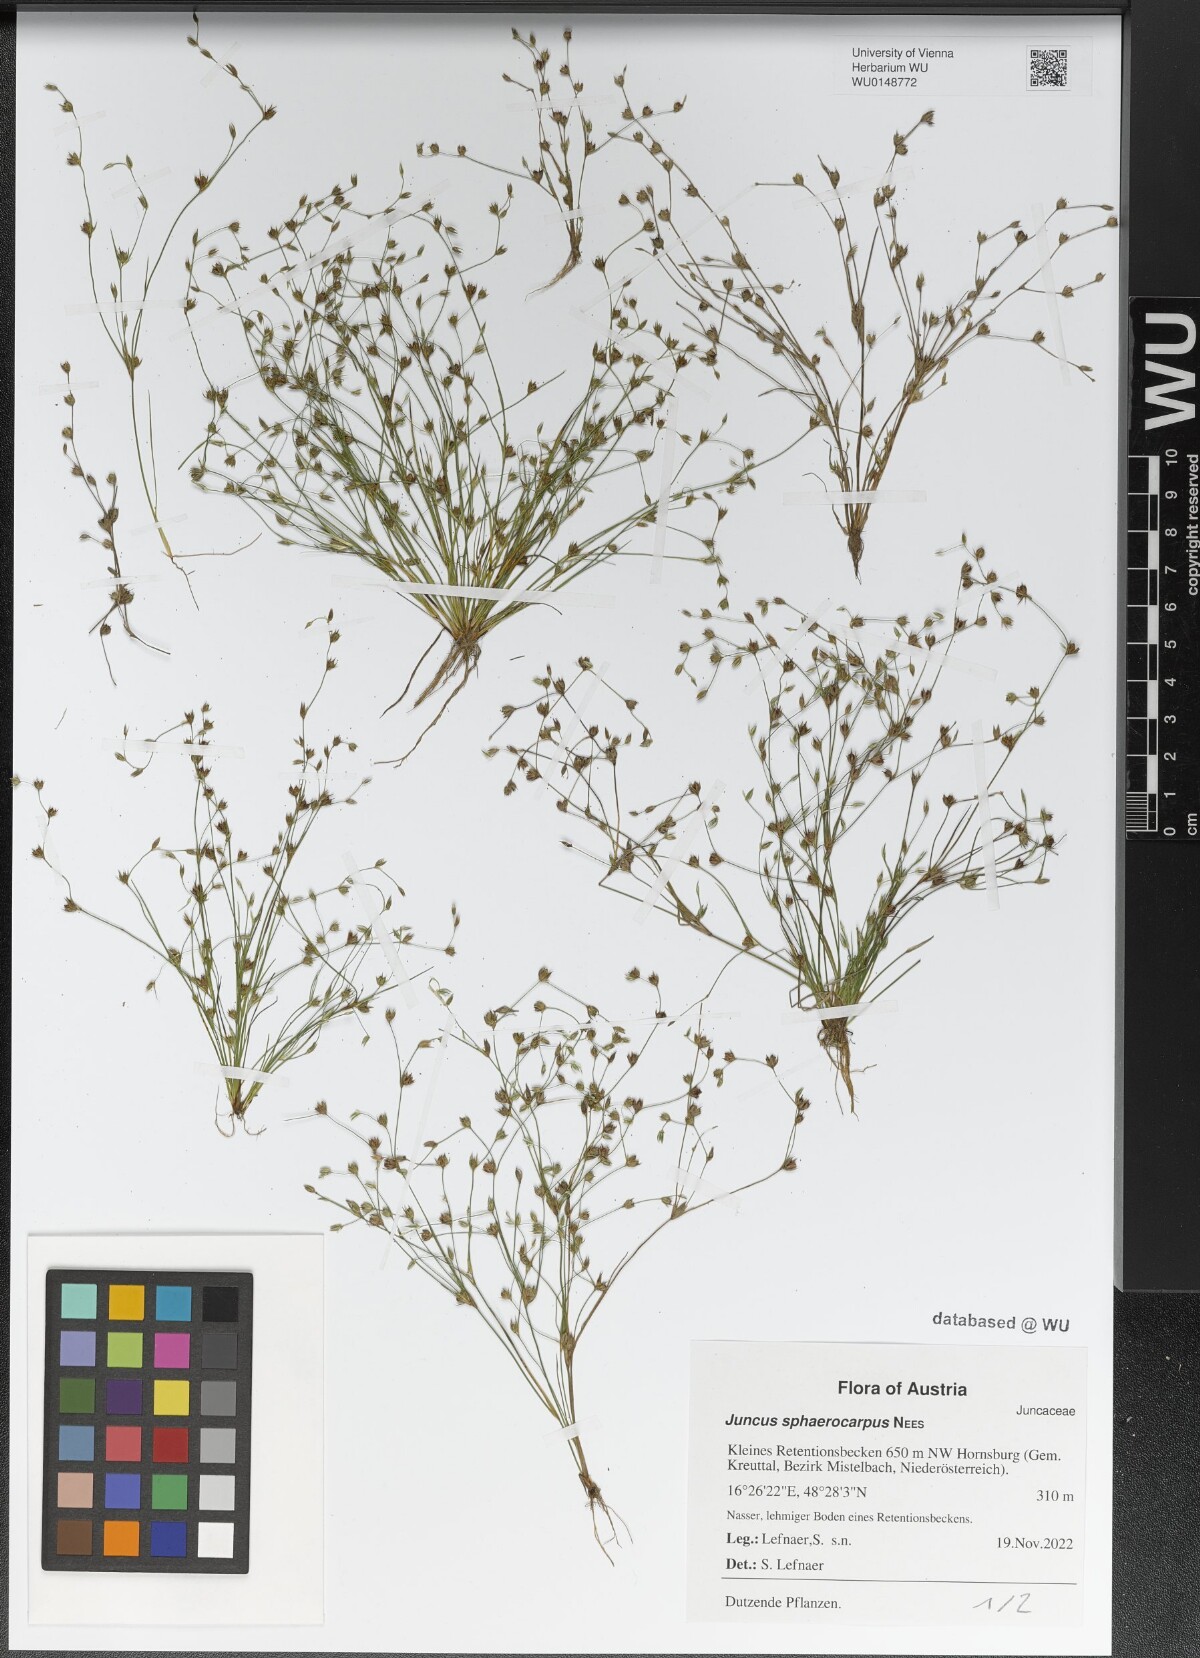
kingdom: Plantae
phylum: Tracheophyta
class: Liliopsida
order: Poales
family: Juncaceae
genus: Juncus
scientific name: Juncus sphaerocarpus
